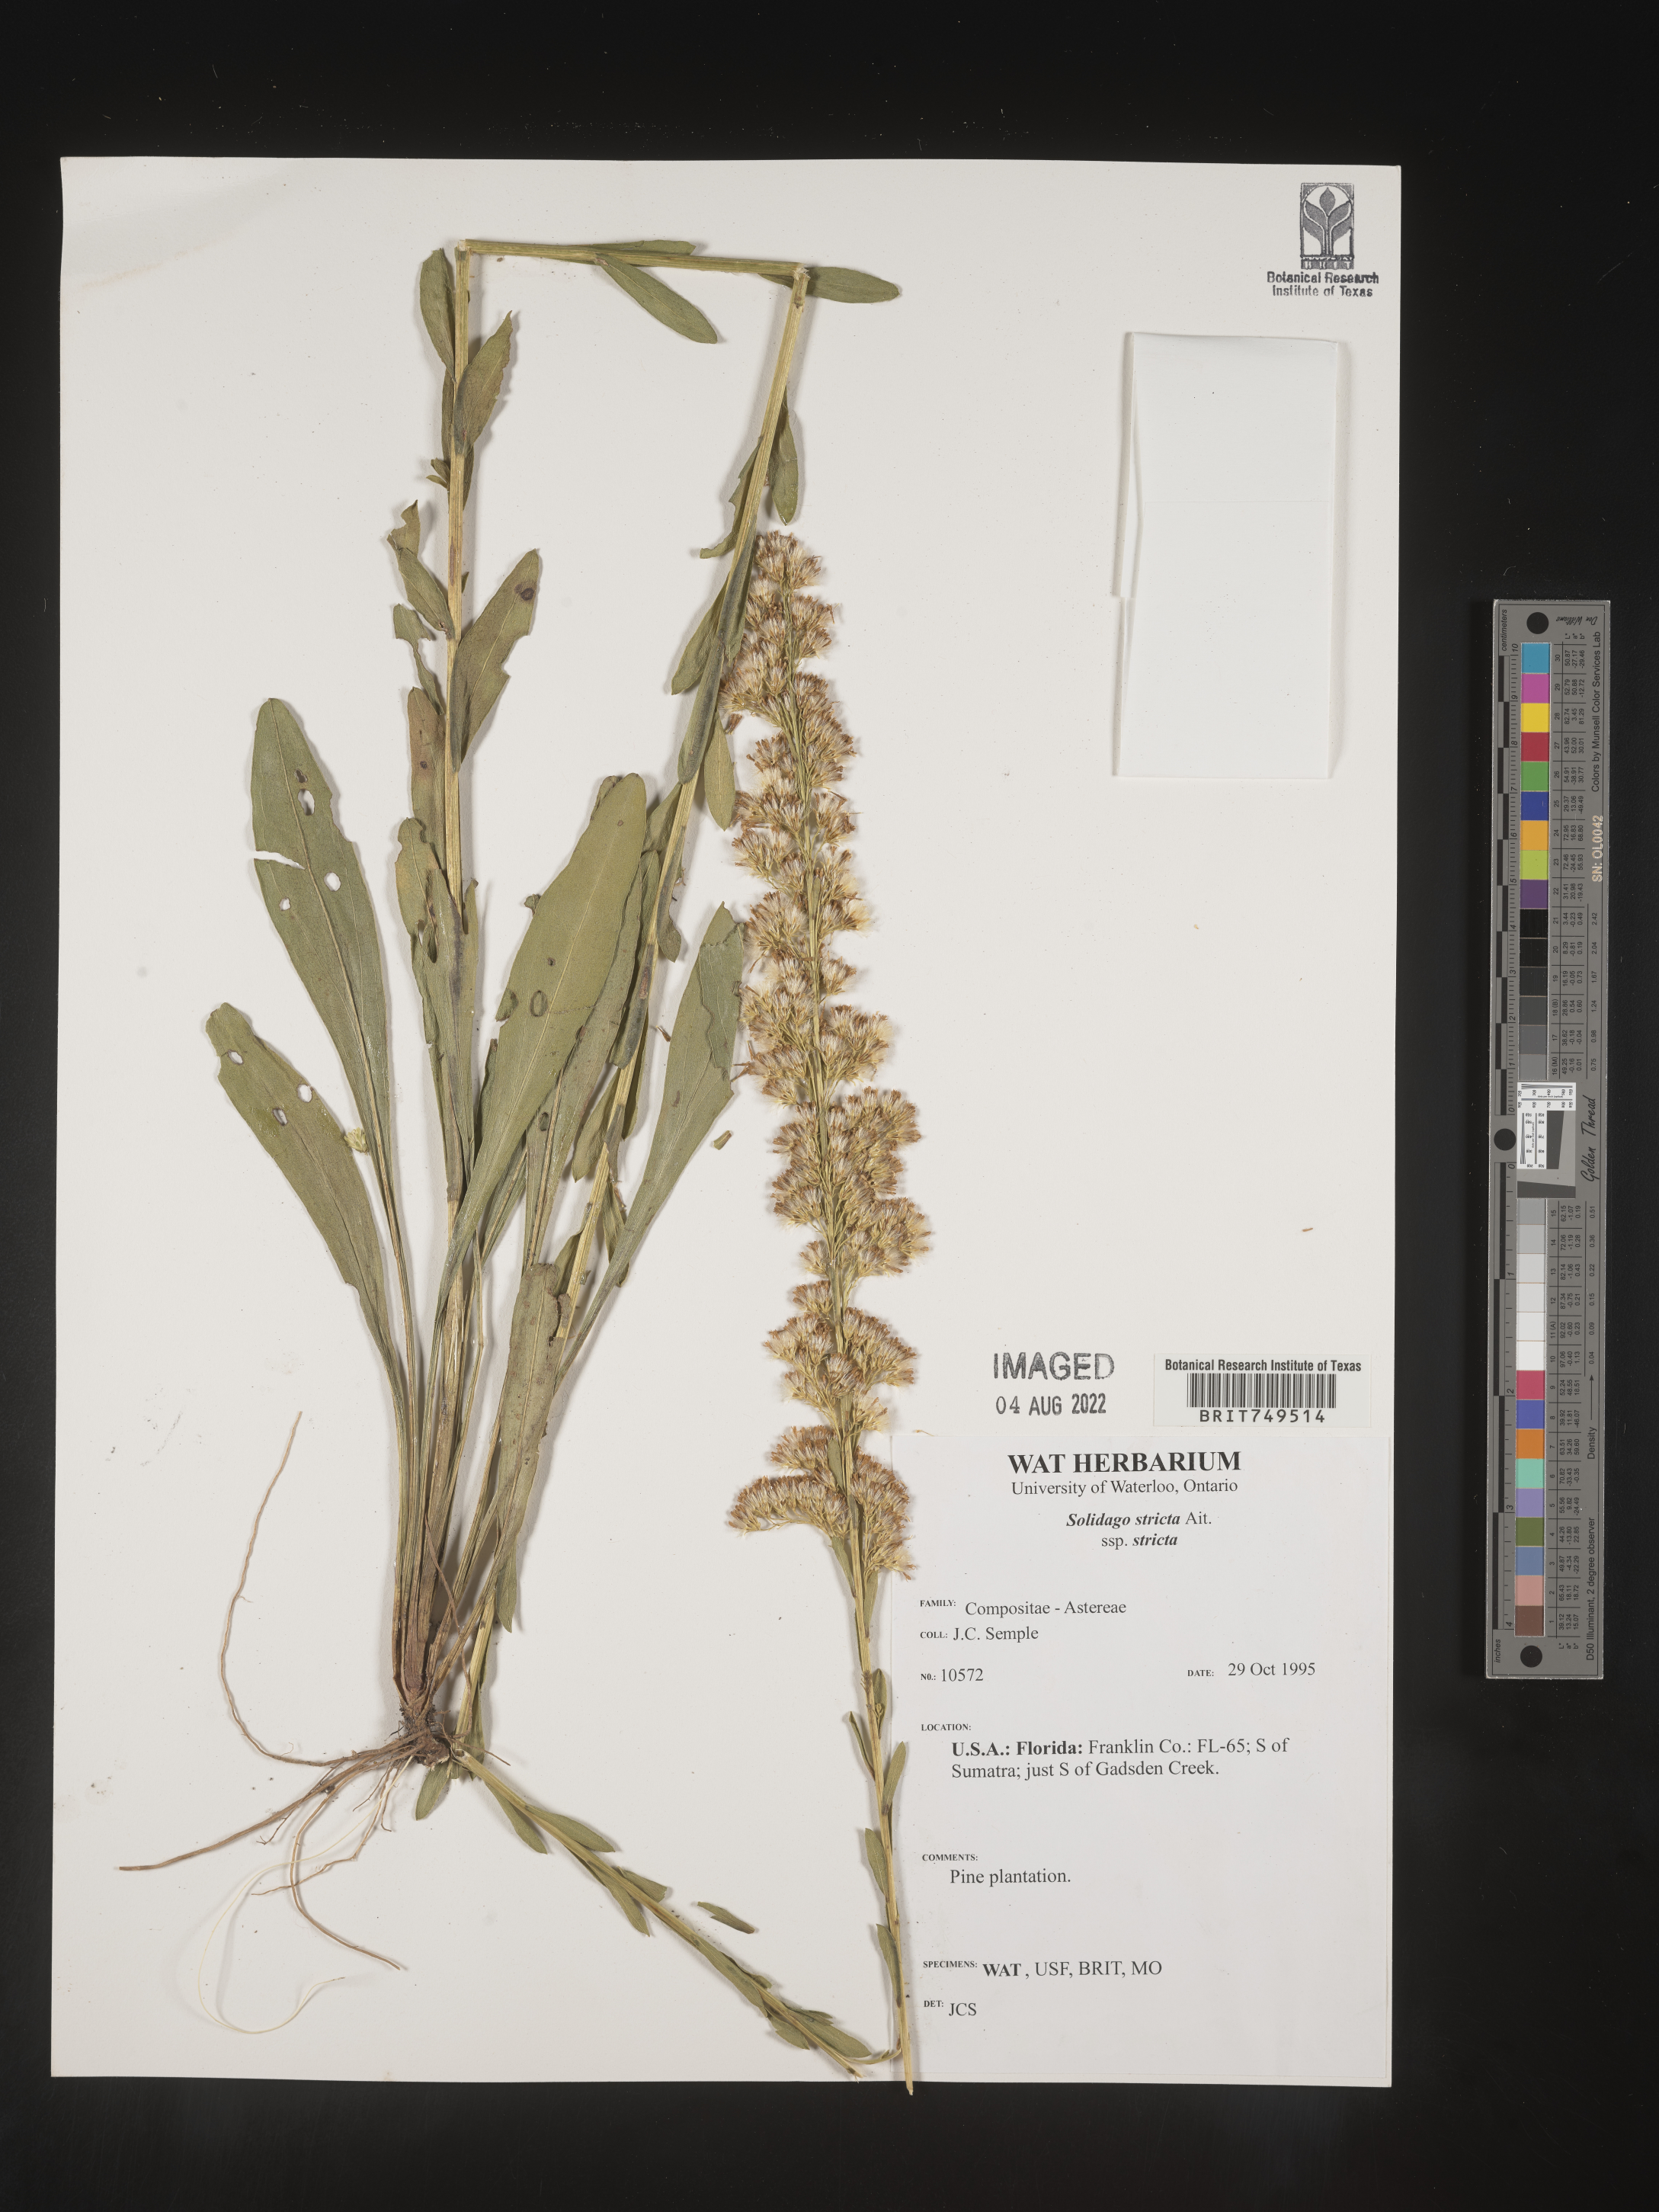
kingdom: Plantae
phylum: Tracheophyta
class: Magnoliopsida
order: Asterales
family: Asteraceae
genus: Solidago
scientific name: Solidago stricta
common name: Pine barren bog goldenrod
